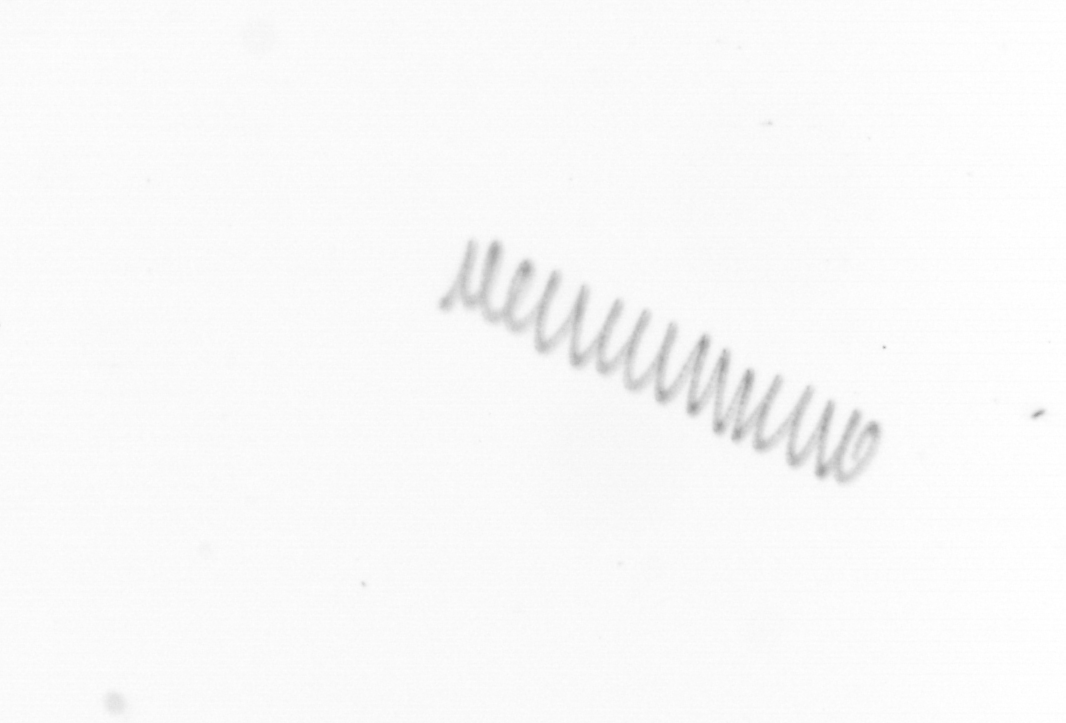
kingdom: Chromista
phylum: Ochrophyta
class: Bacillariophyceae
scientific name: Bacillariophyceae
